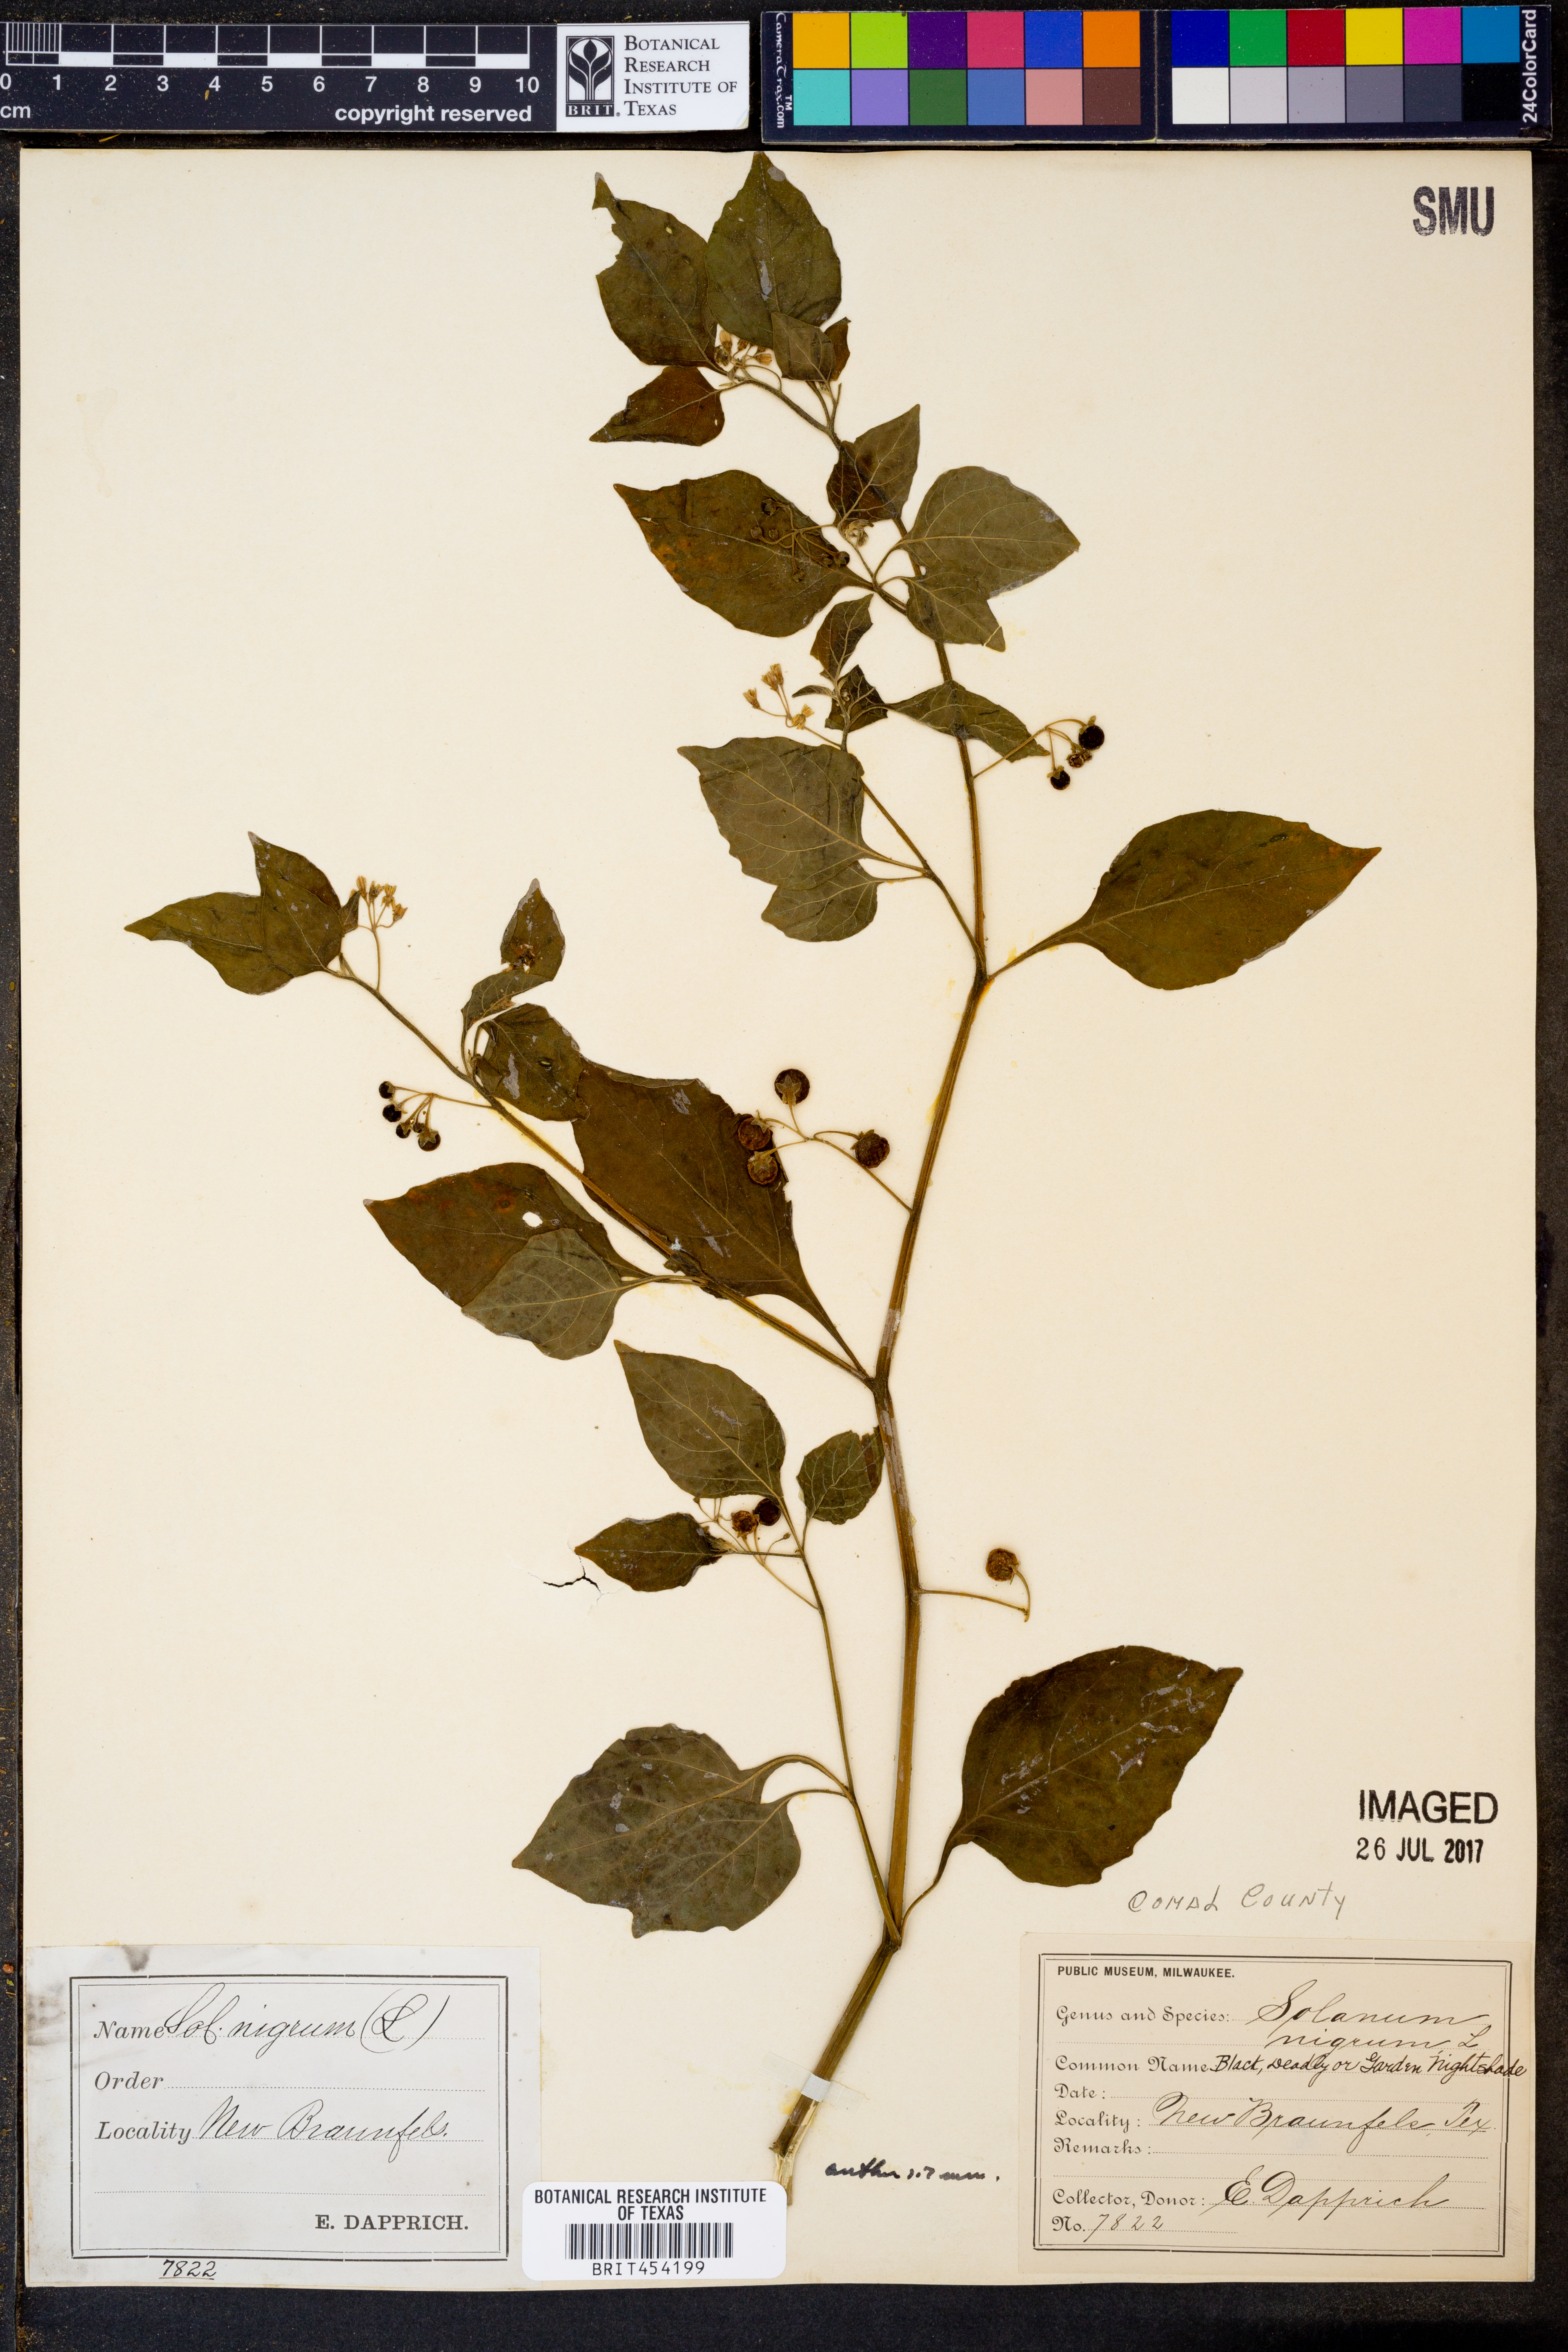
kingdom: Plantae
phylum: Tracheophyta
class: Magnoliopsida
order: Solanales
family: Solanaceae
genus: Solanum
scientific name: Solanum nigrum
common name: Black nightshade
